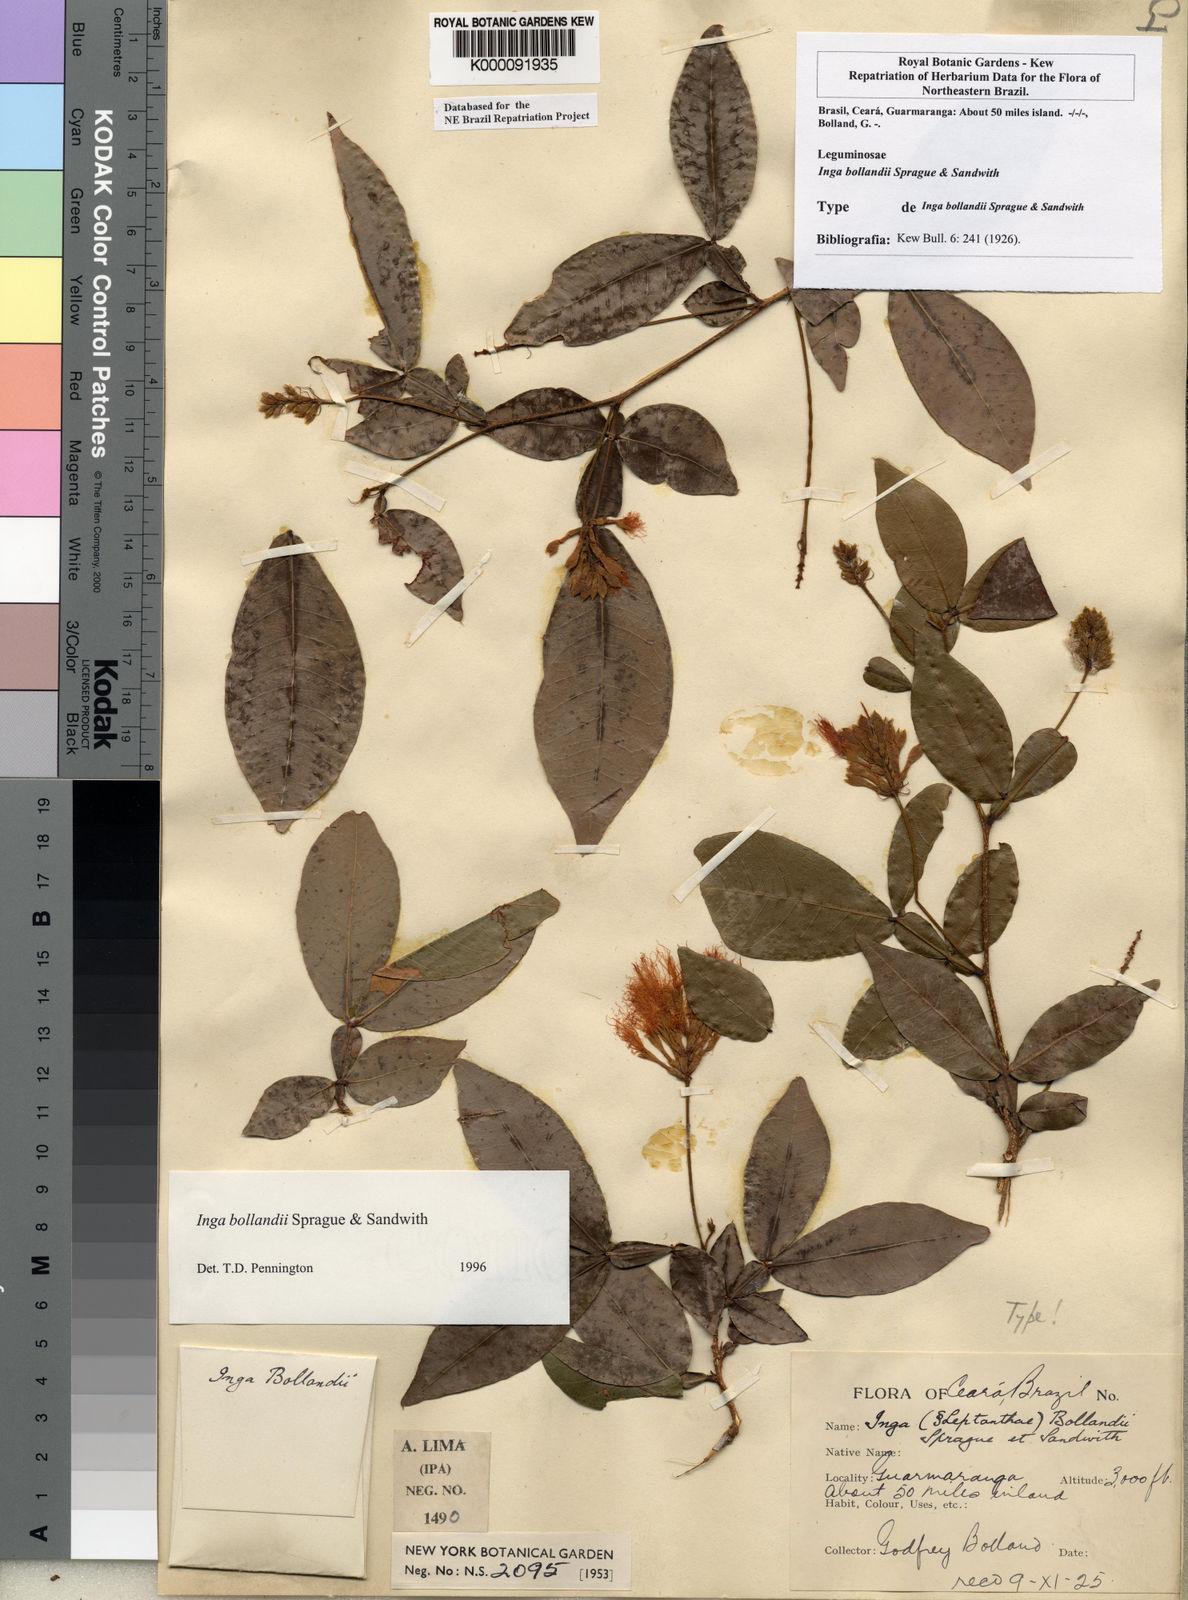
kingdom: Plantae
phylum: Tracheophyta
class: Magnoliopsida
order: Fabales
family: Fabaceae
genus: Inga
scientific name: Inga bollandii
